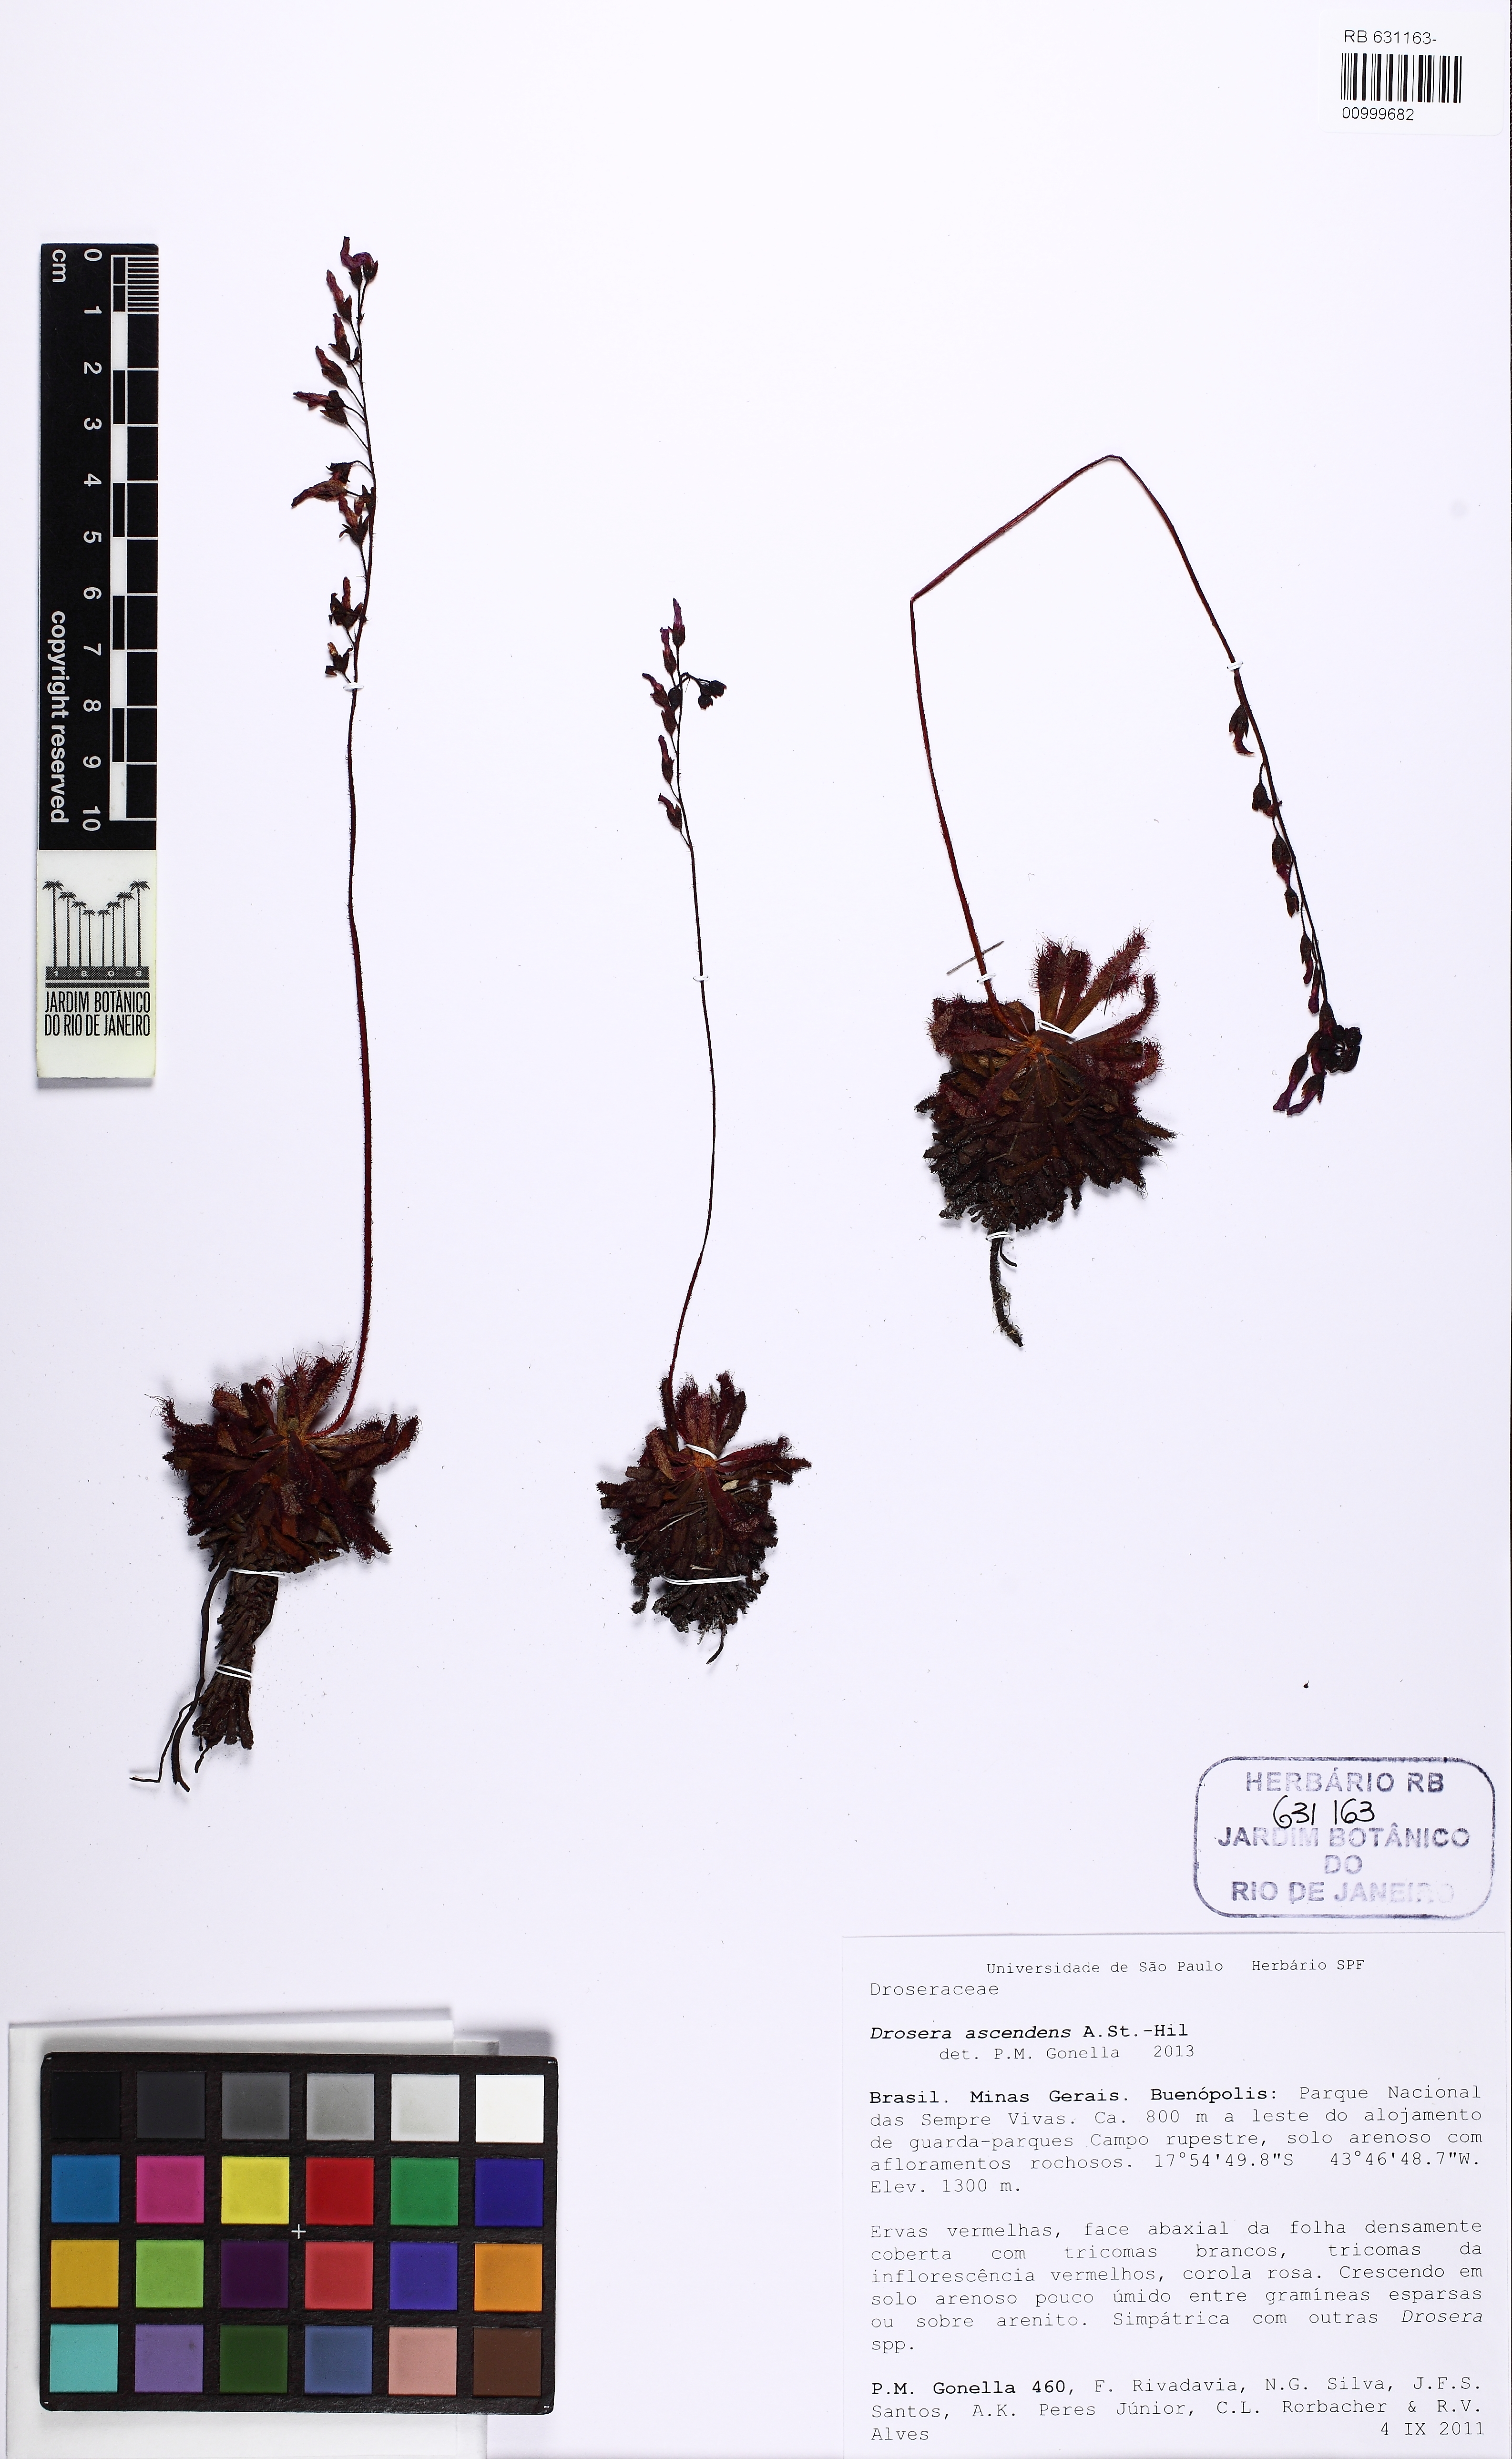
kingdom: Plantae
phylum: Tracheophyta
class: Magnoliopsida
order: Caryophyllales
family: Droseraceae
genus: Drosera
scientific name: Drosera villosa
